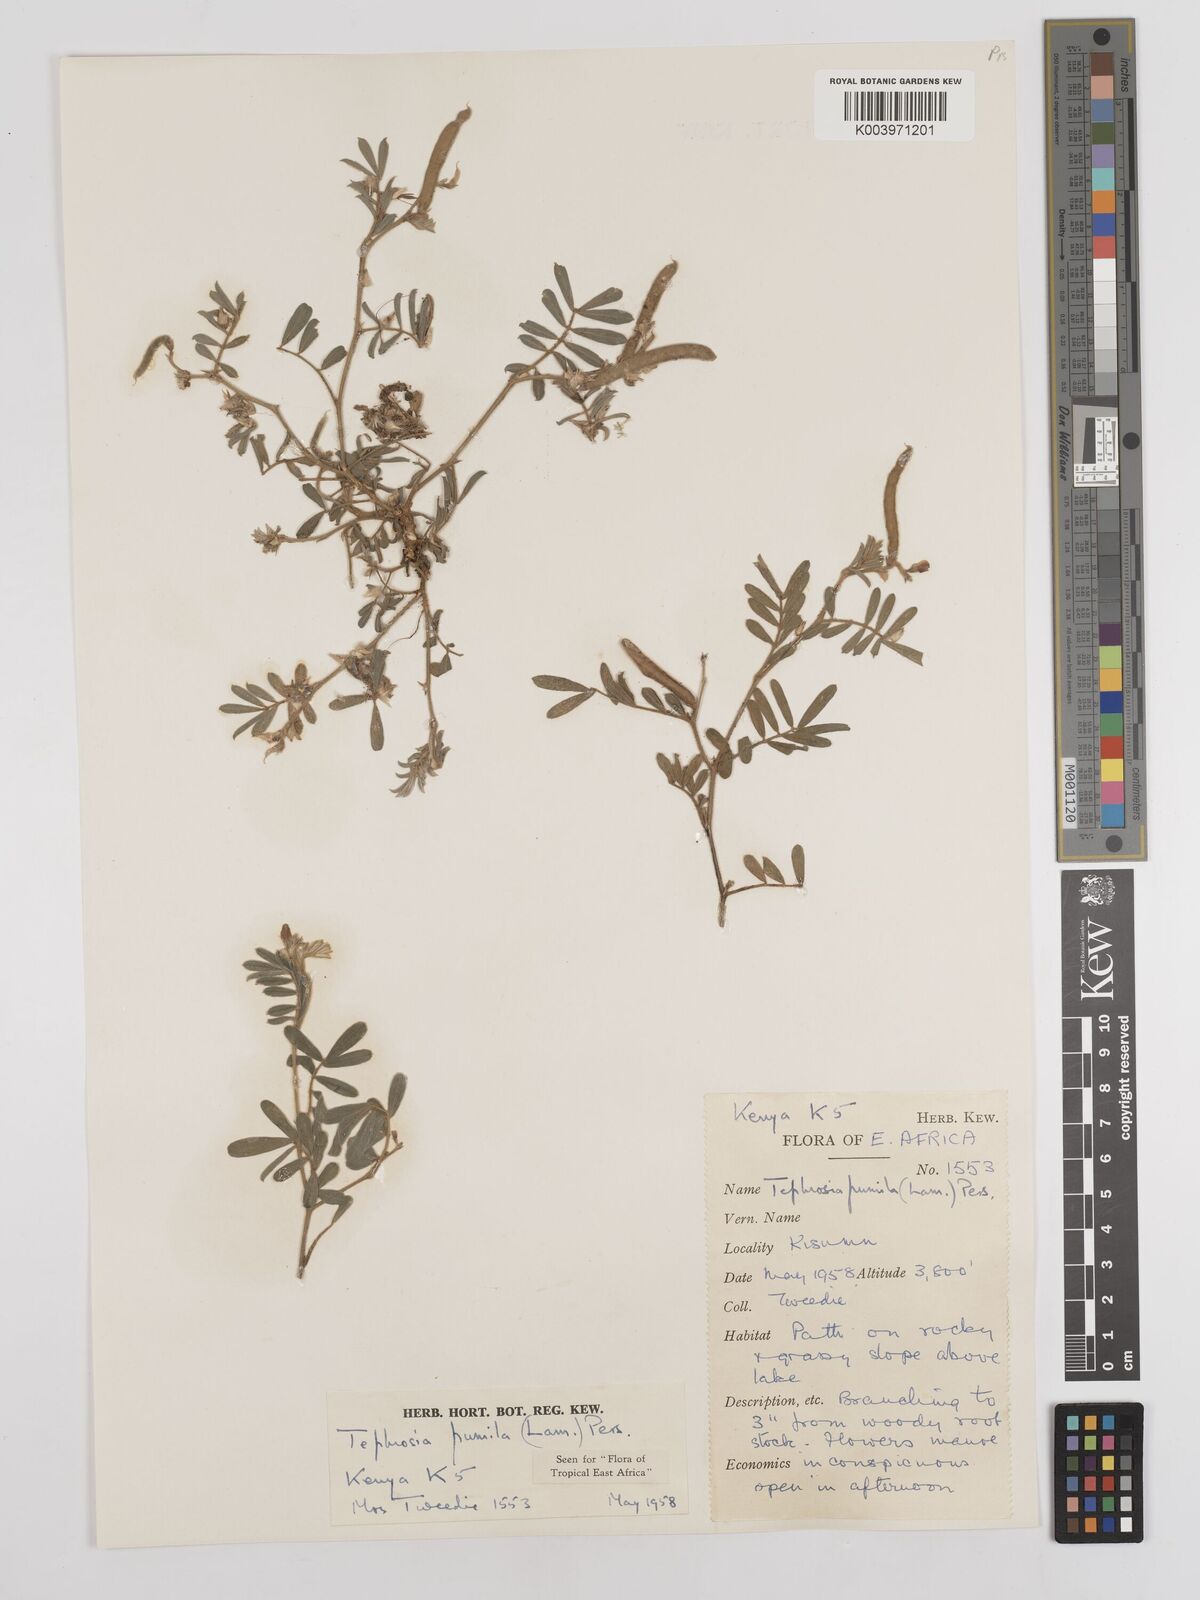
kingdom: Plantae
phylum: Tracheophyta
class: Magnoliopsida
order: Fabales
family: Fabaceae
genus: Tephrosia
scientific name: Tephrosia pumila
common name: Indigo sauvage
